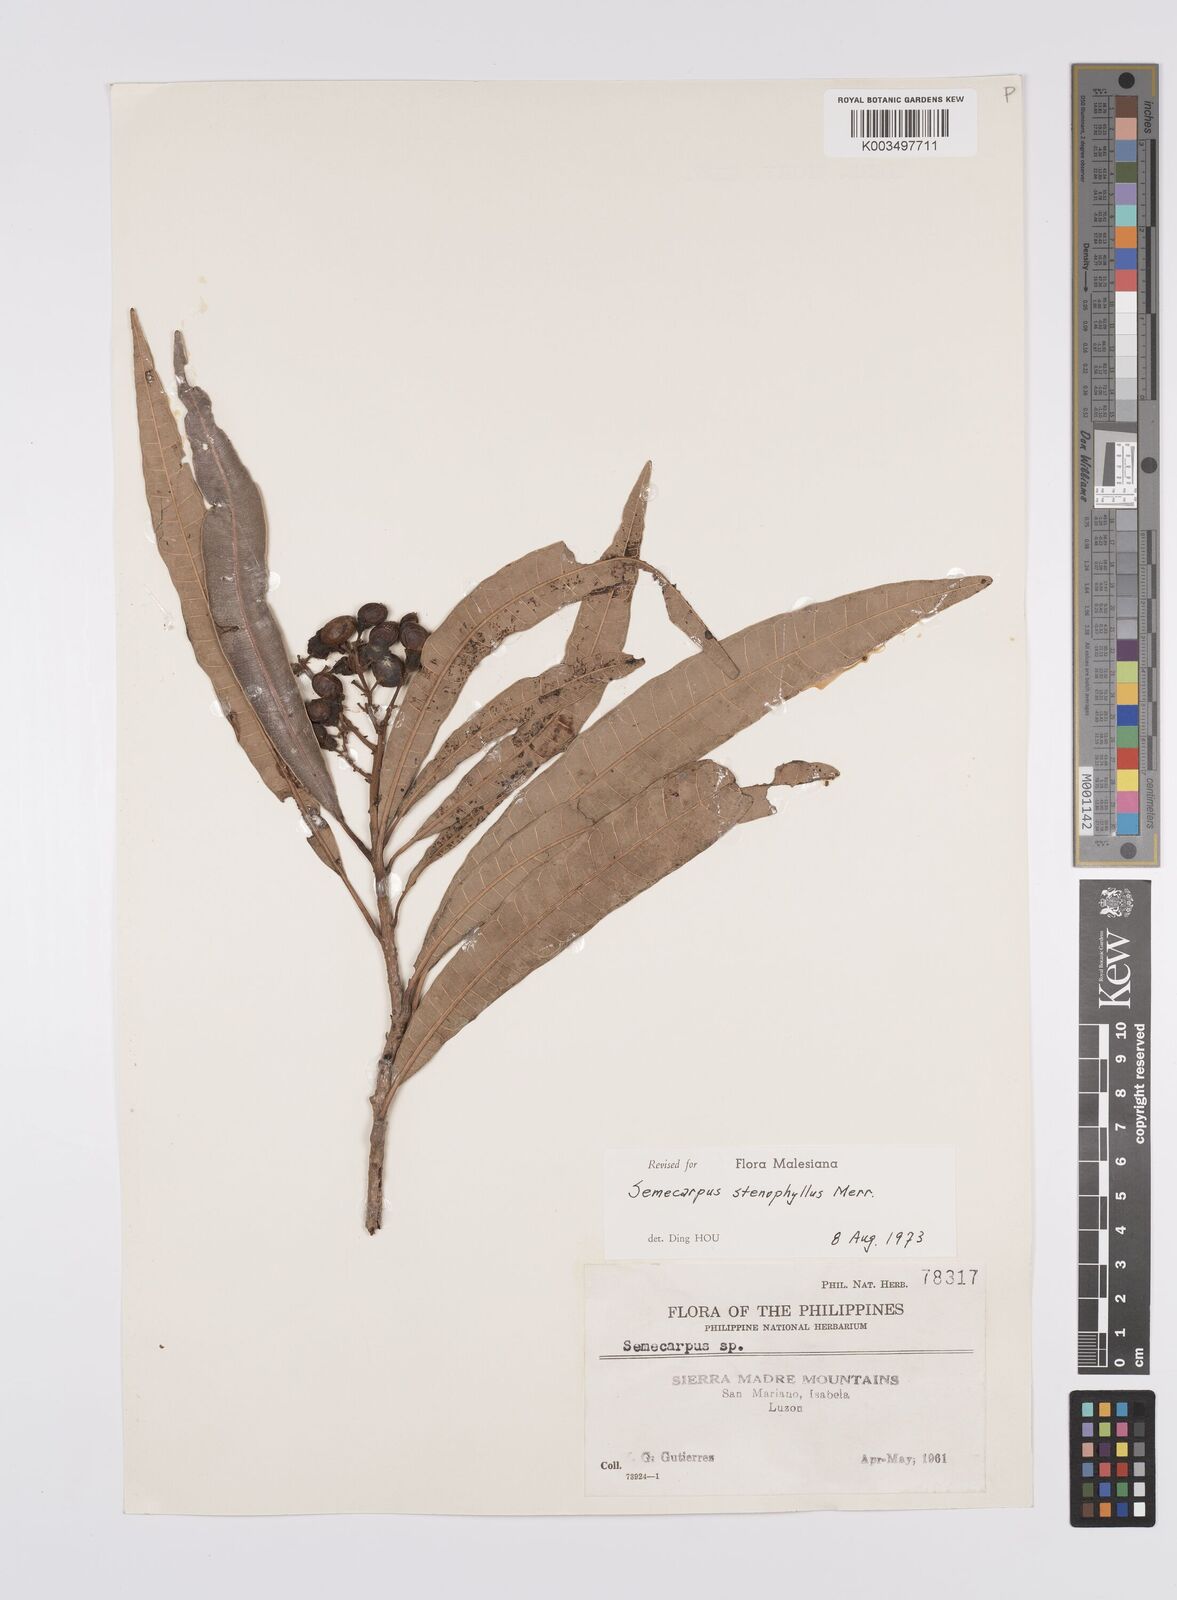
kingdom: Plantae
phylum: Tracheophyta
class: Magnoliopsida
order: Sapindales
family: Anacardiaceae
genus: Semecarpus
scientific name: Semecarpus stenophyllus
